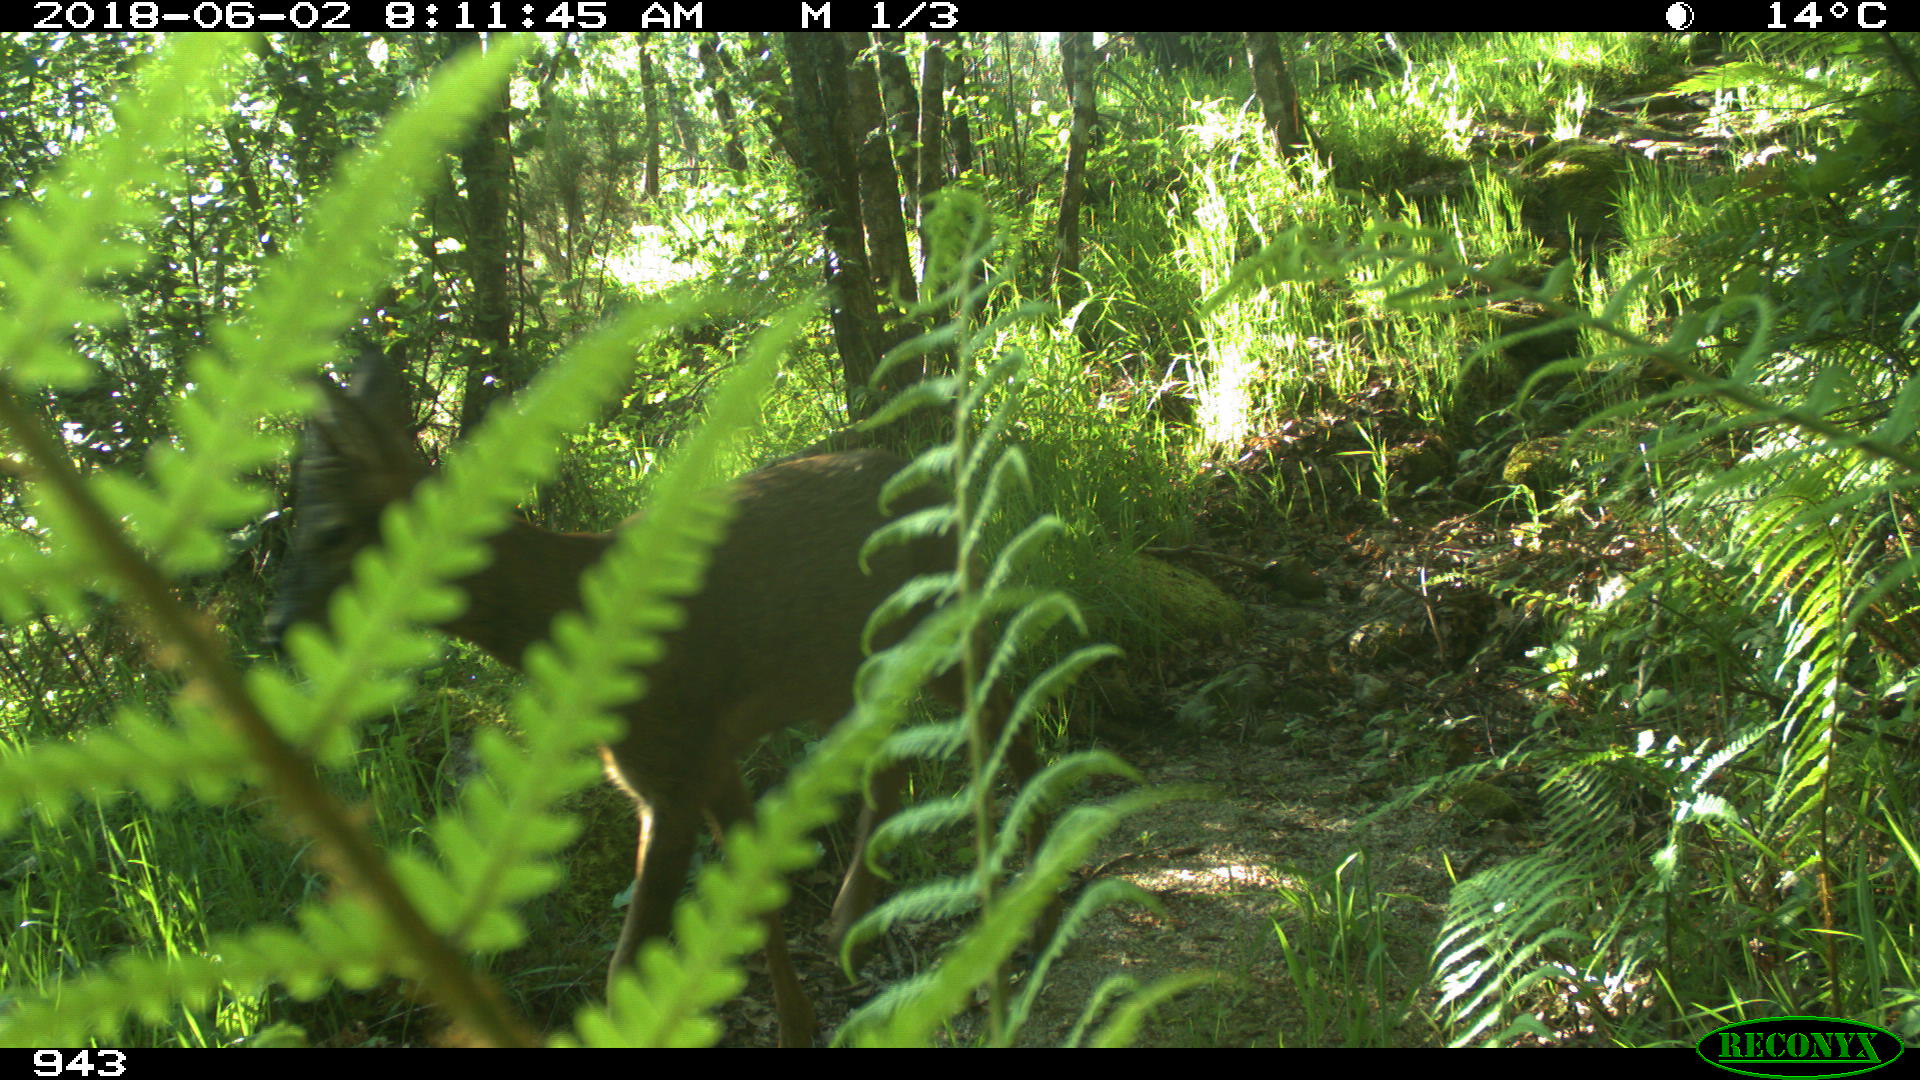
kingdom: Animalia
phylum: Chordata
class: Mammalia
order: Artiodactyla
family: Cervidae
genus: Capreolus
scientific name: Capreolus capreolus
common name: Western roe deer
